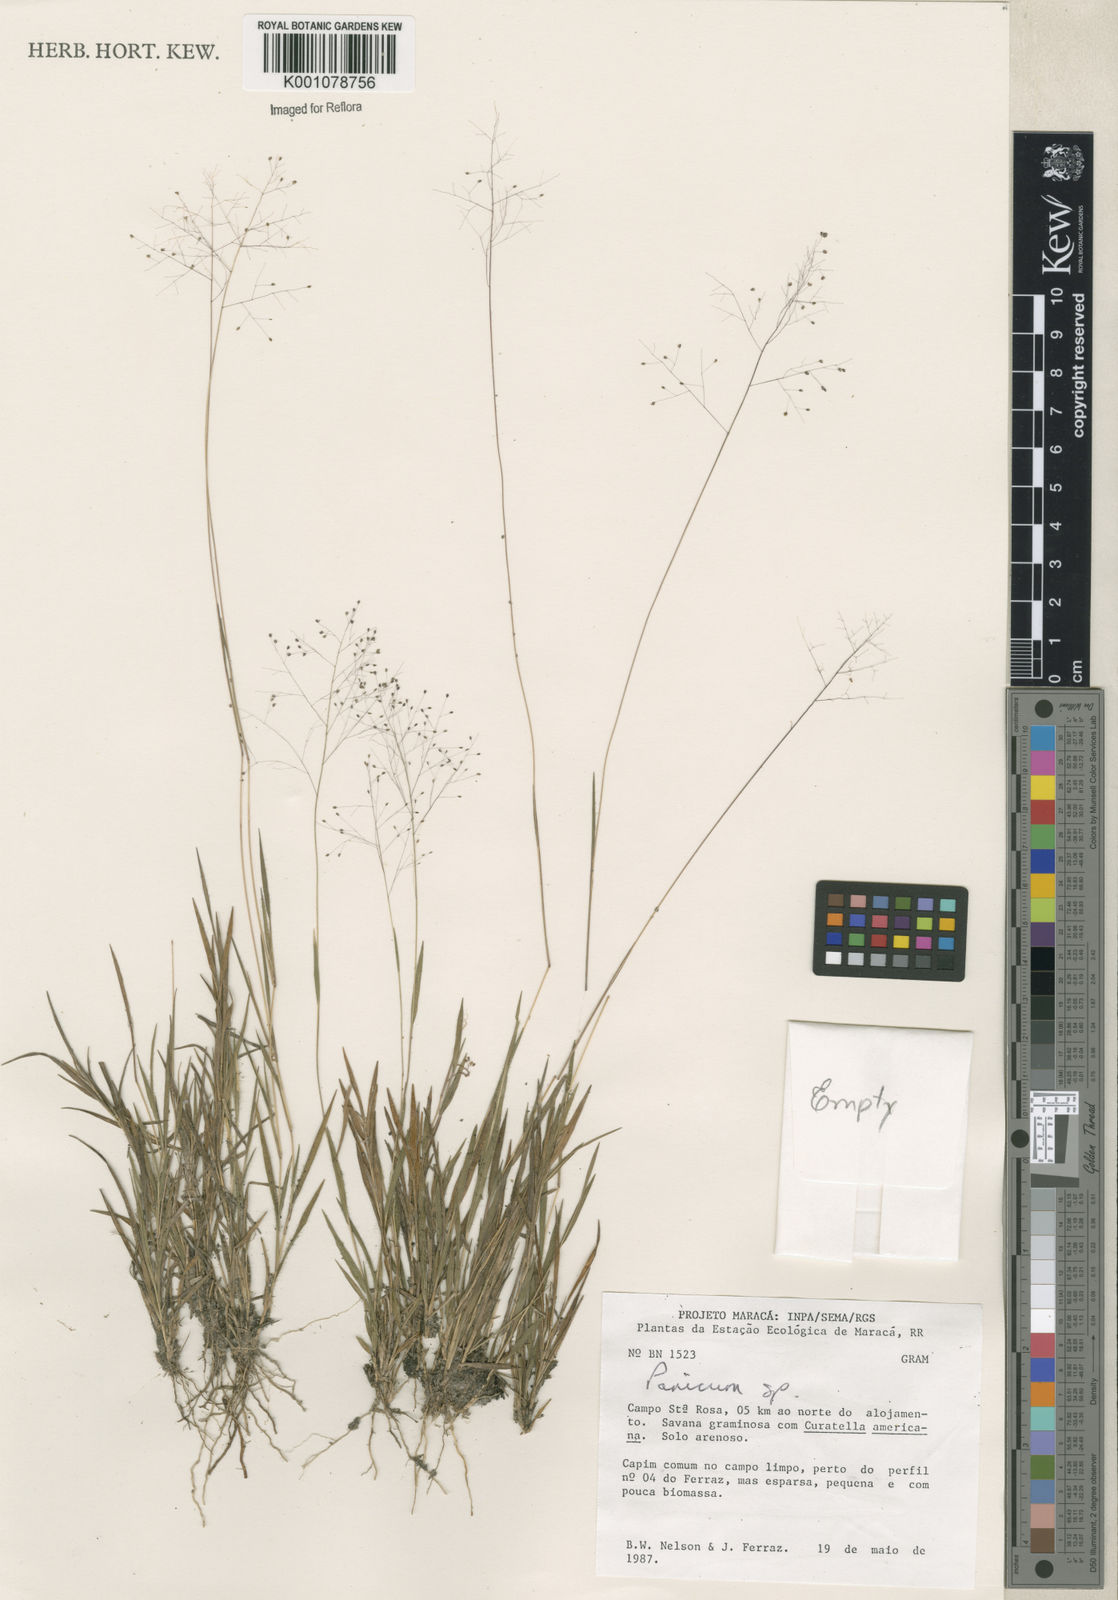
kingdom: Plantae
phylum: Tracheophyta
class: Liliopsida
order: Poales
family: Poaceae
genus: Panicum
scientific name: Panicum
